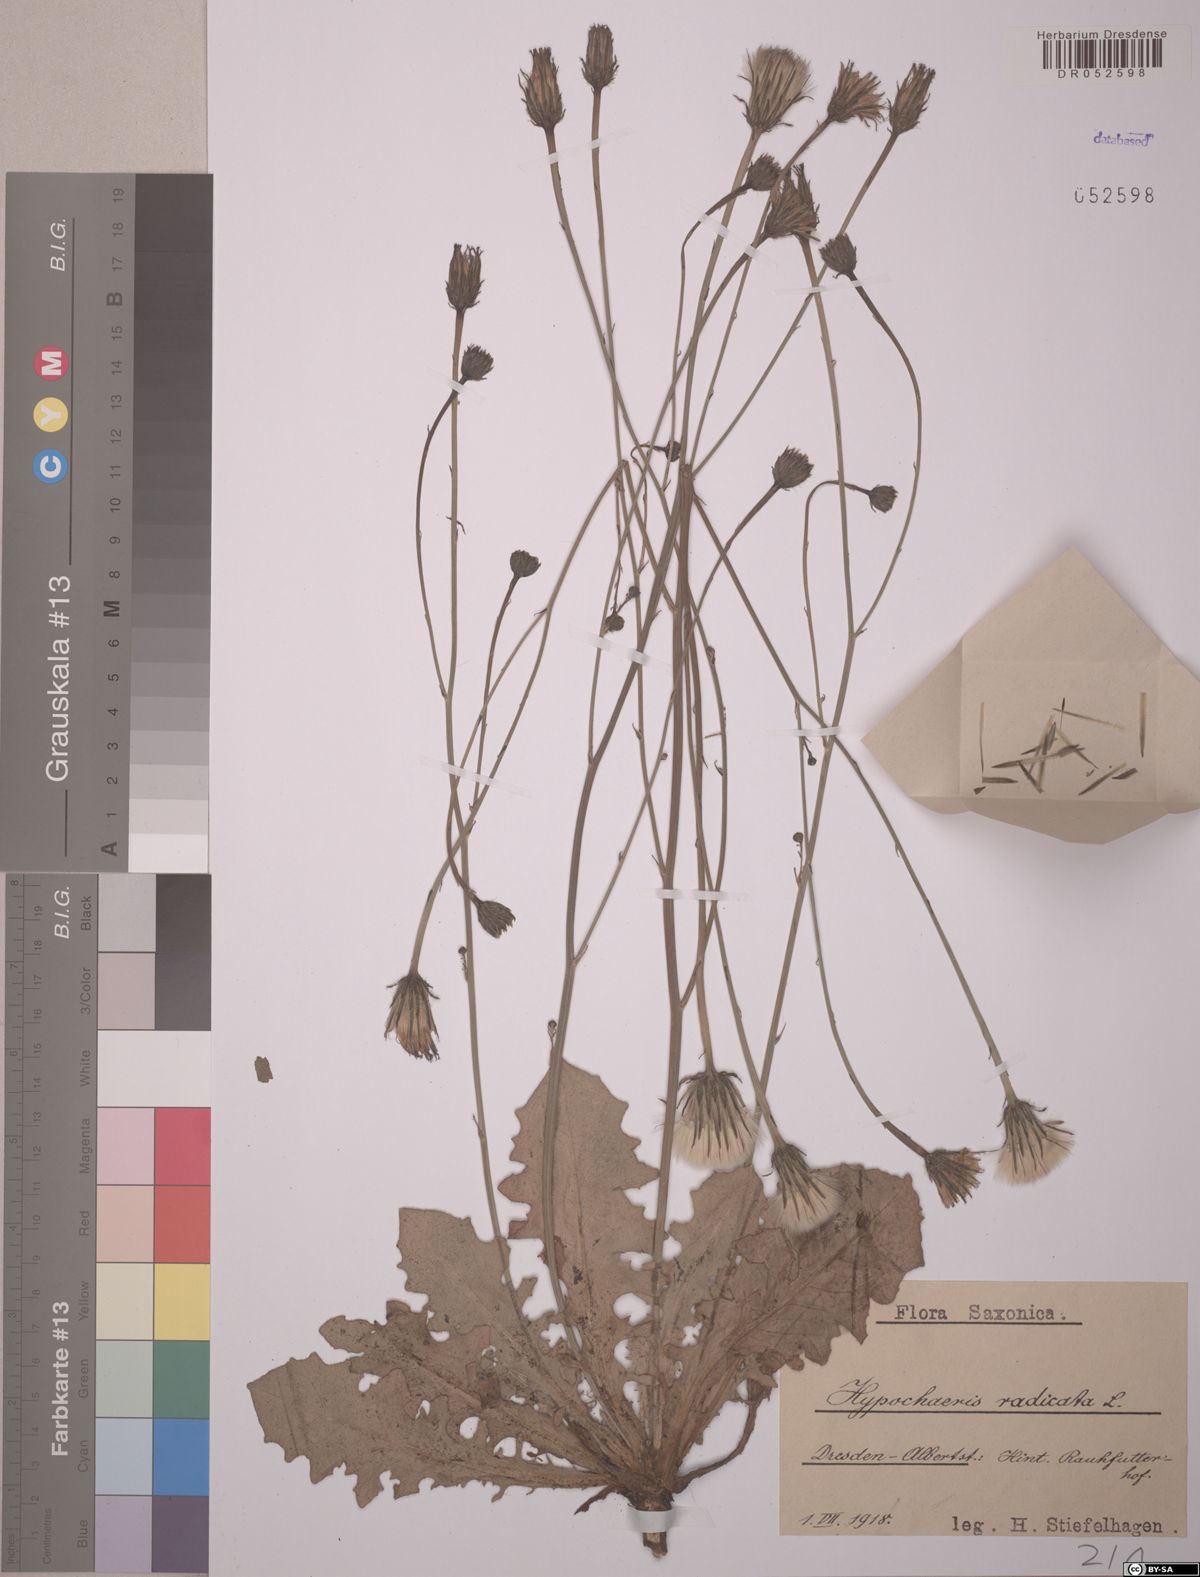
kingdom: Plantae
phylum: Tracheophyta
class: Magnoliopsida
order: Asterales
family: Asteraceae
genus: Hypochaeris
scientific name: Hypochaeris radicata
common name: Flatweed
